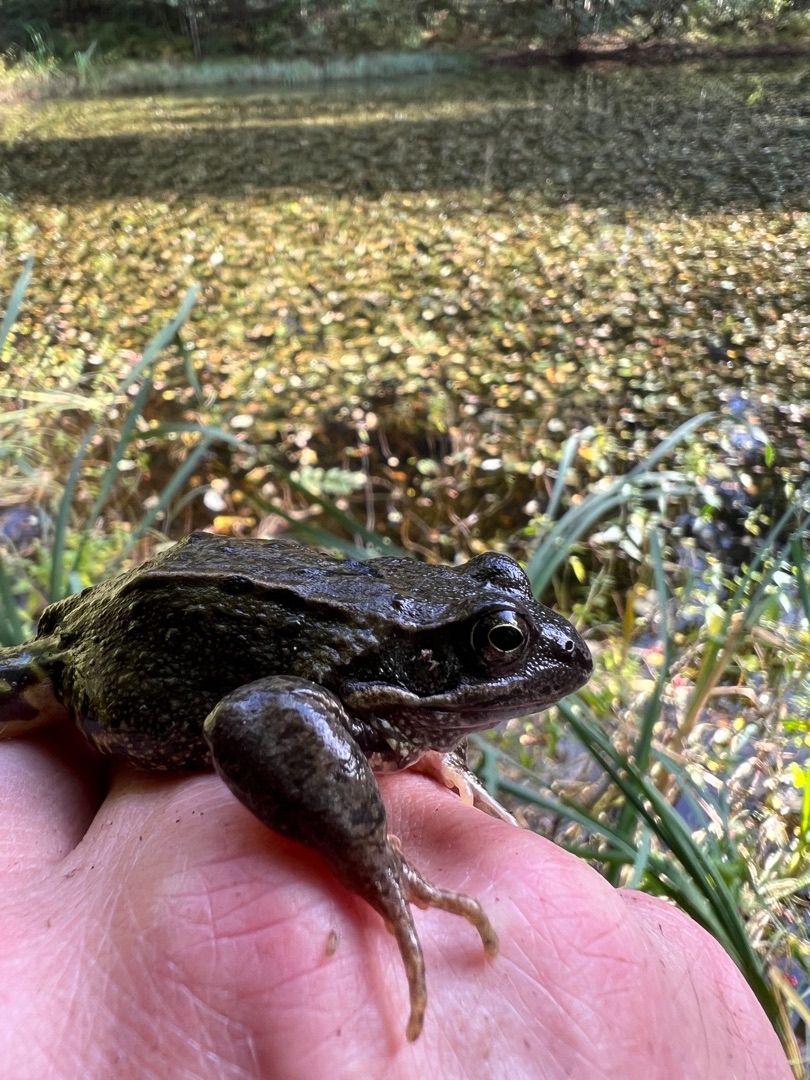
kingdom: Animalia
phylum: Chordata
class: Amphibia
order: Anura
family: Ranidae
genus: Rana
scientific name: Rana temporaria
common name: Butsnudet frø
